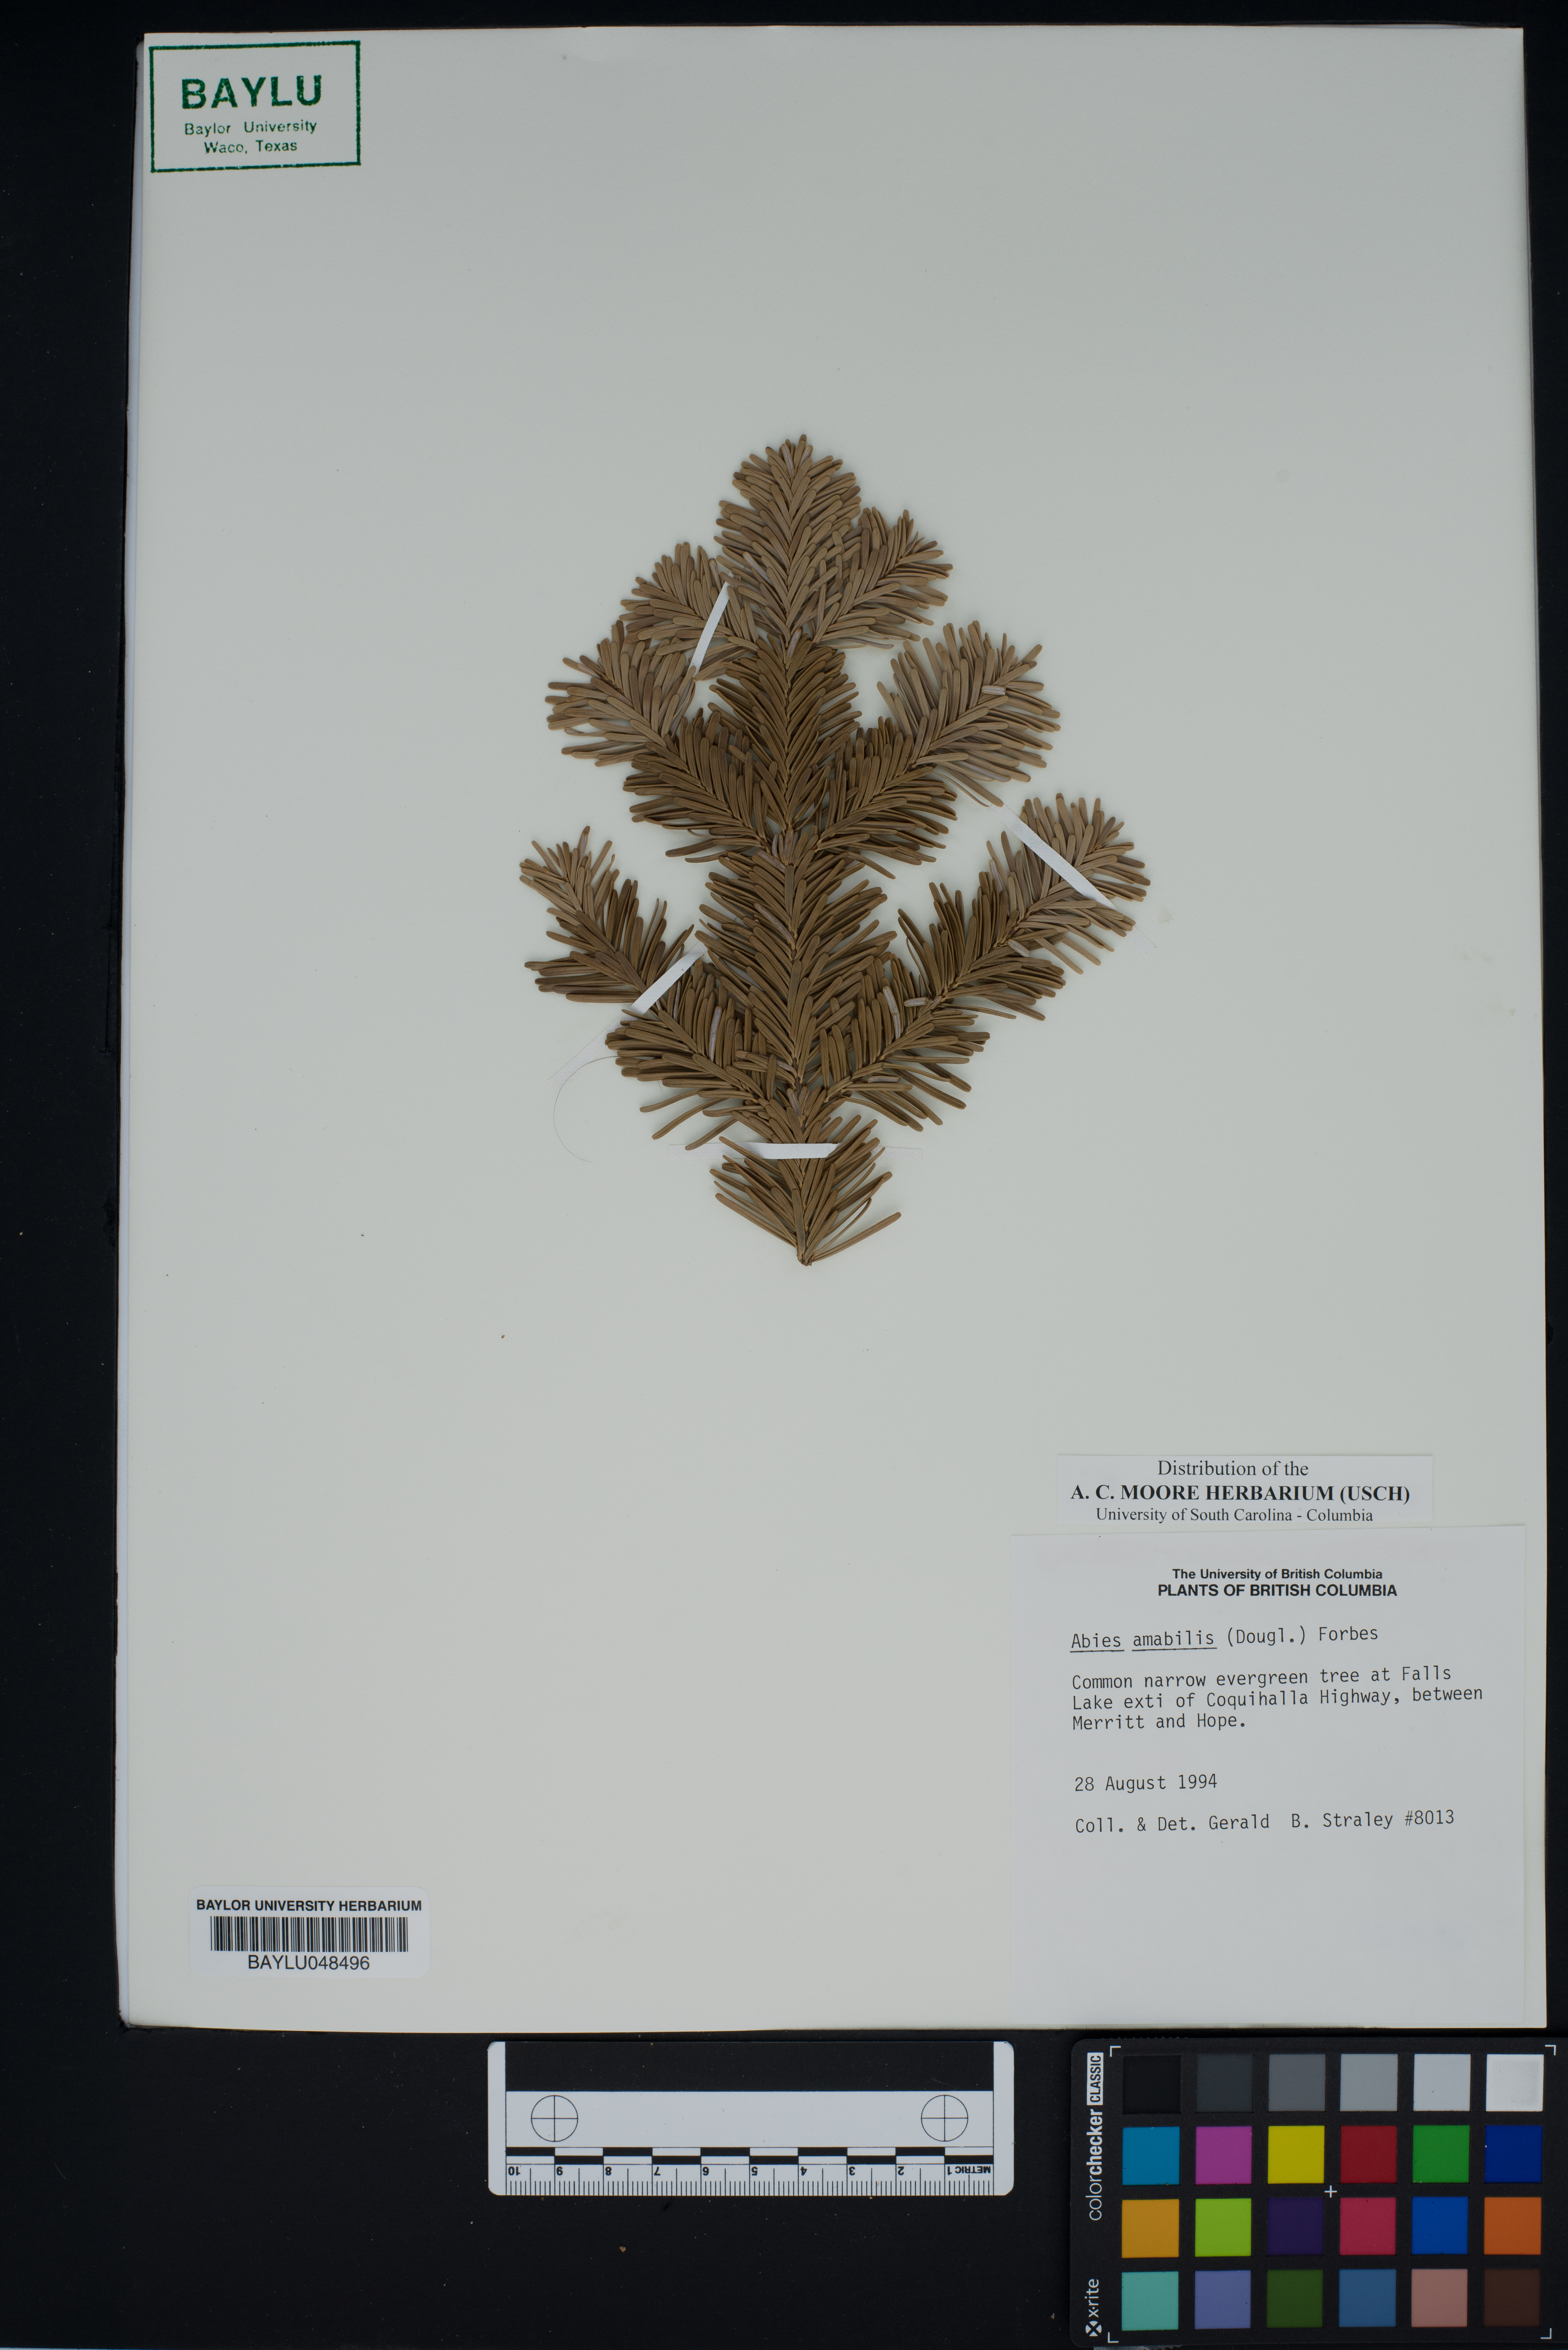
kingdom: Plantae
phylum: Tracheophyta
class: Pinopsida
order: Pinales
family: Pinaceae
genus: Abies
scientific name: Abies amabilis
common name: Pacific silver fir
